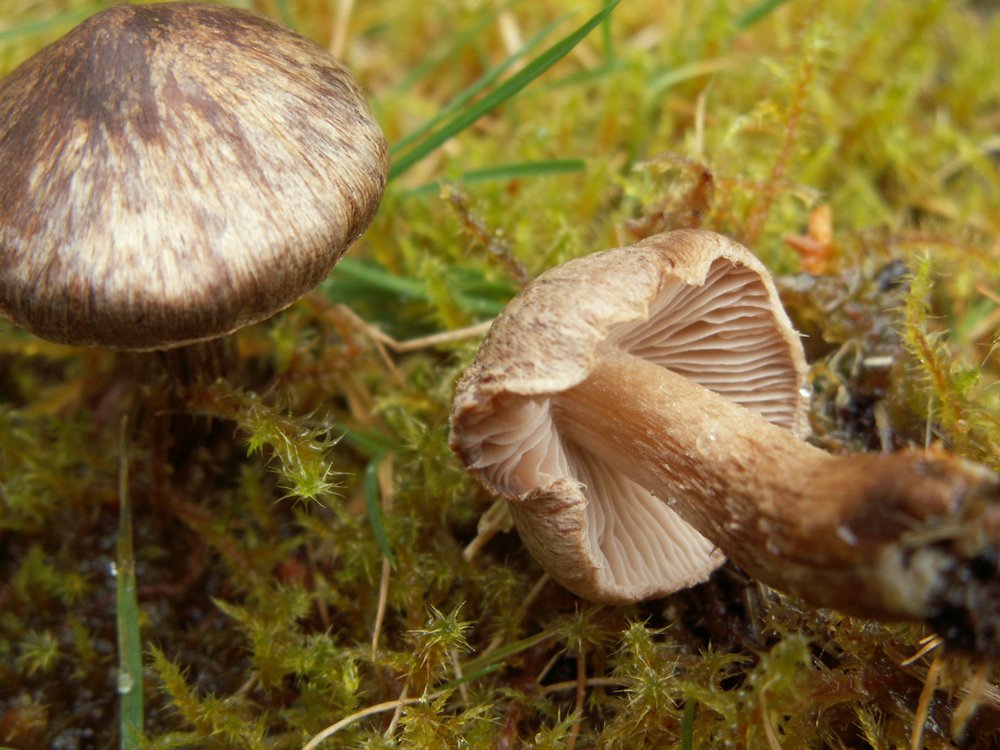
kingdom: Fungi
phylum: Basidiomycota
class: Agaricomycetes
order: Agaricales
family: Inocybaceae
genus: Inocybe
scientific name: Inocybe soluta
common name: lysbladet trævlhat
